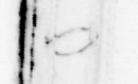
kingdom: Animalia
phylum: Chordata
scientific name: Chordata
